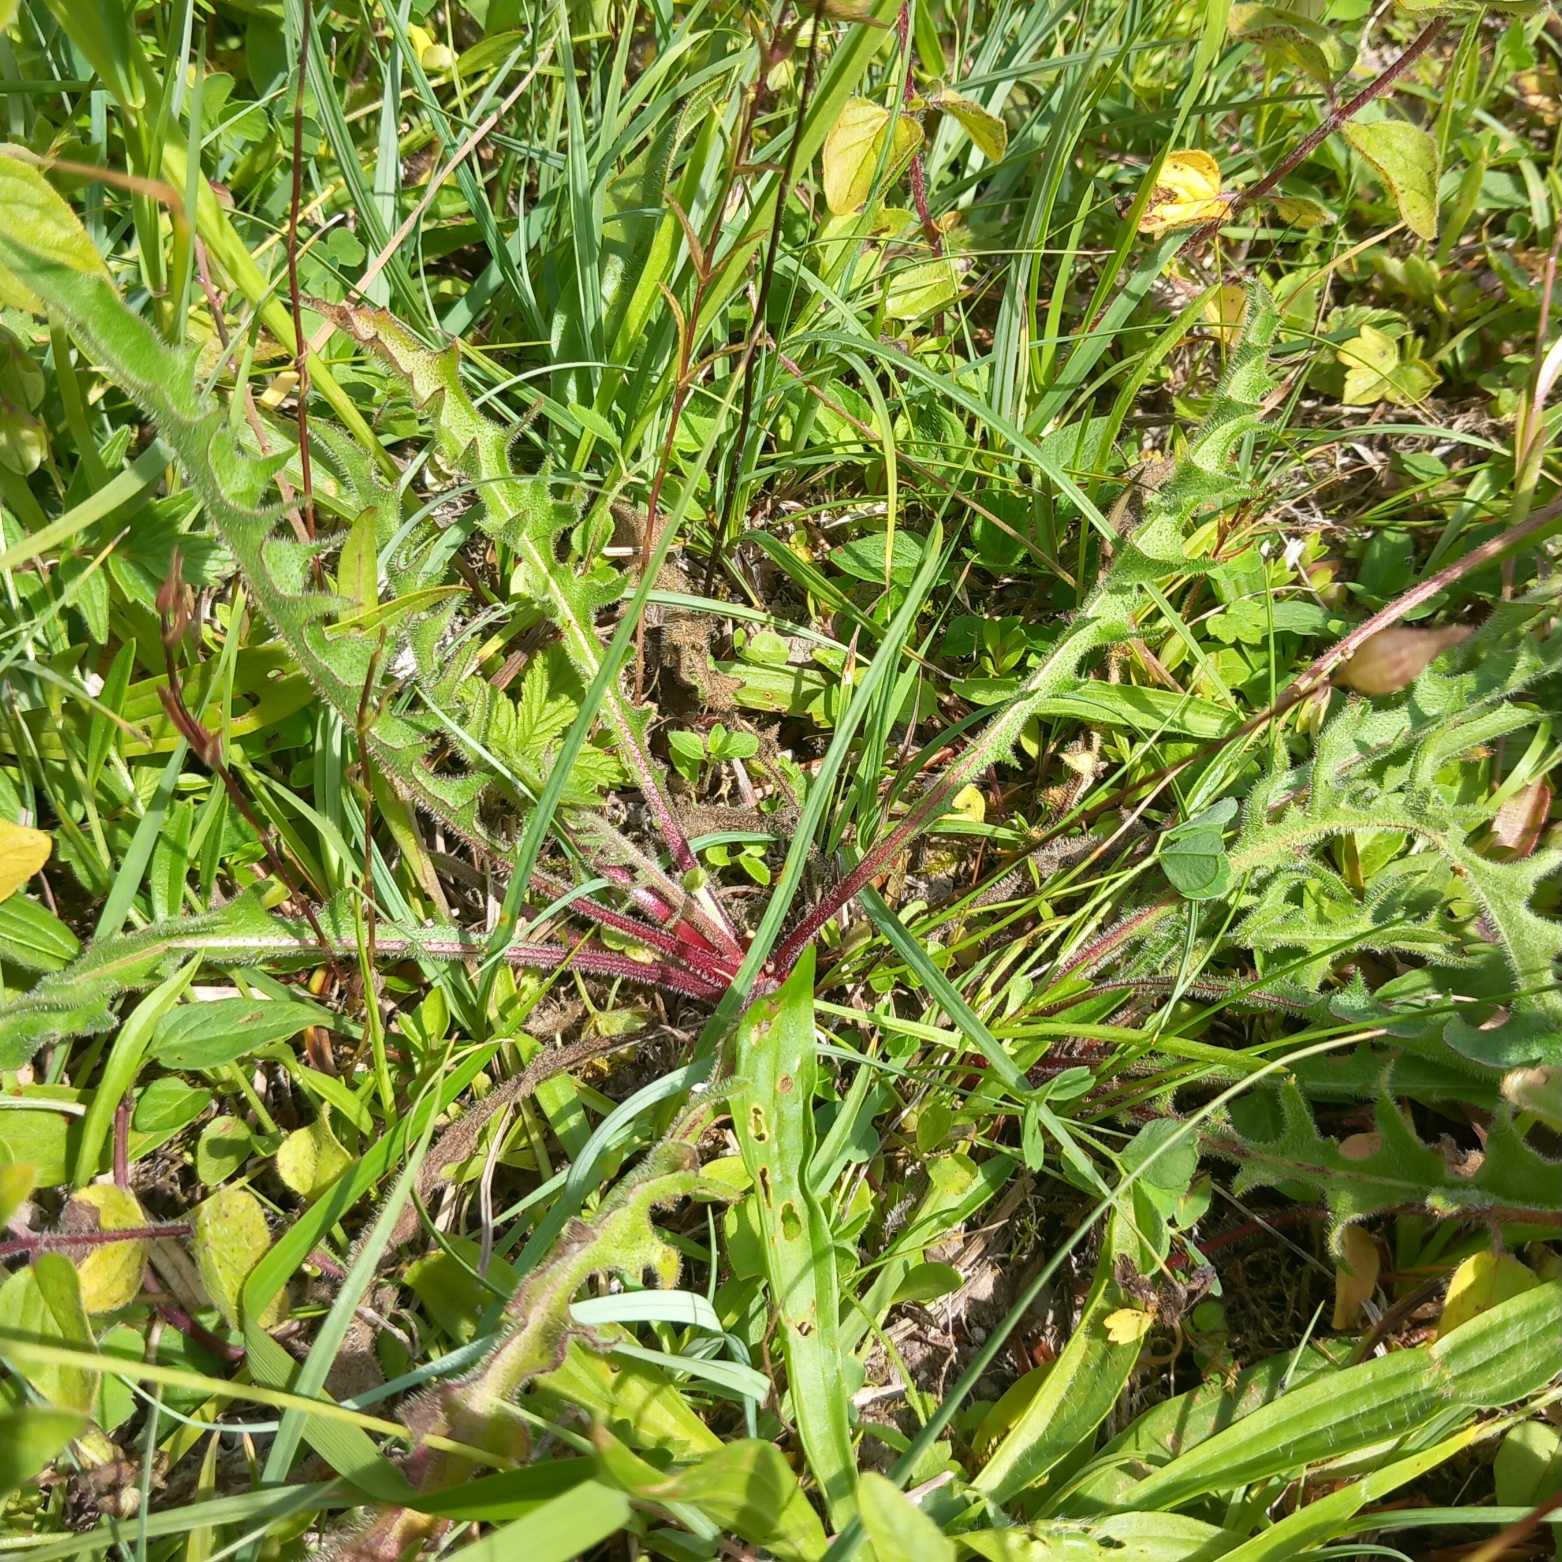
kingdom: Plantae
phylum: Tracheophyta
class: Magnoliopsida
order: Asterales
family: Asteraceae
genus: Leontodon
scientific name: Leontodon hispidus
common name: Stivhåret borst
